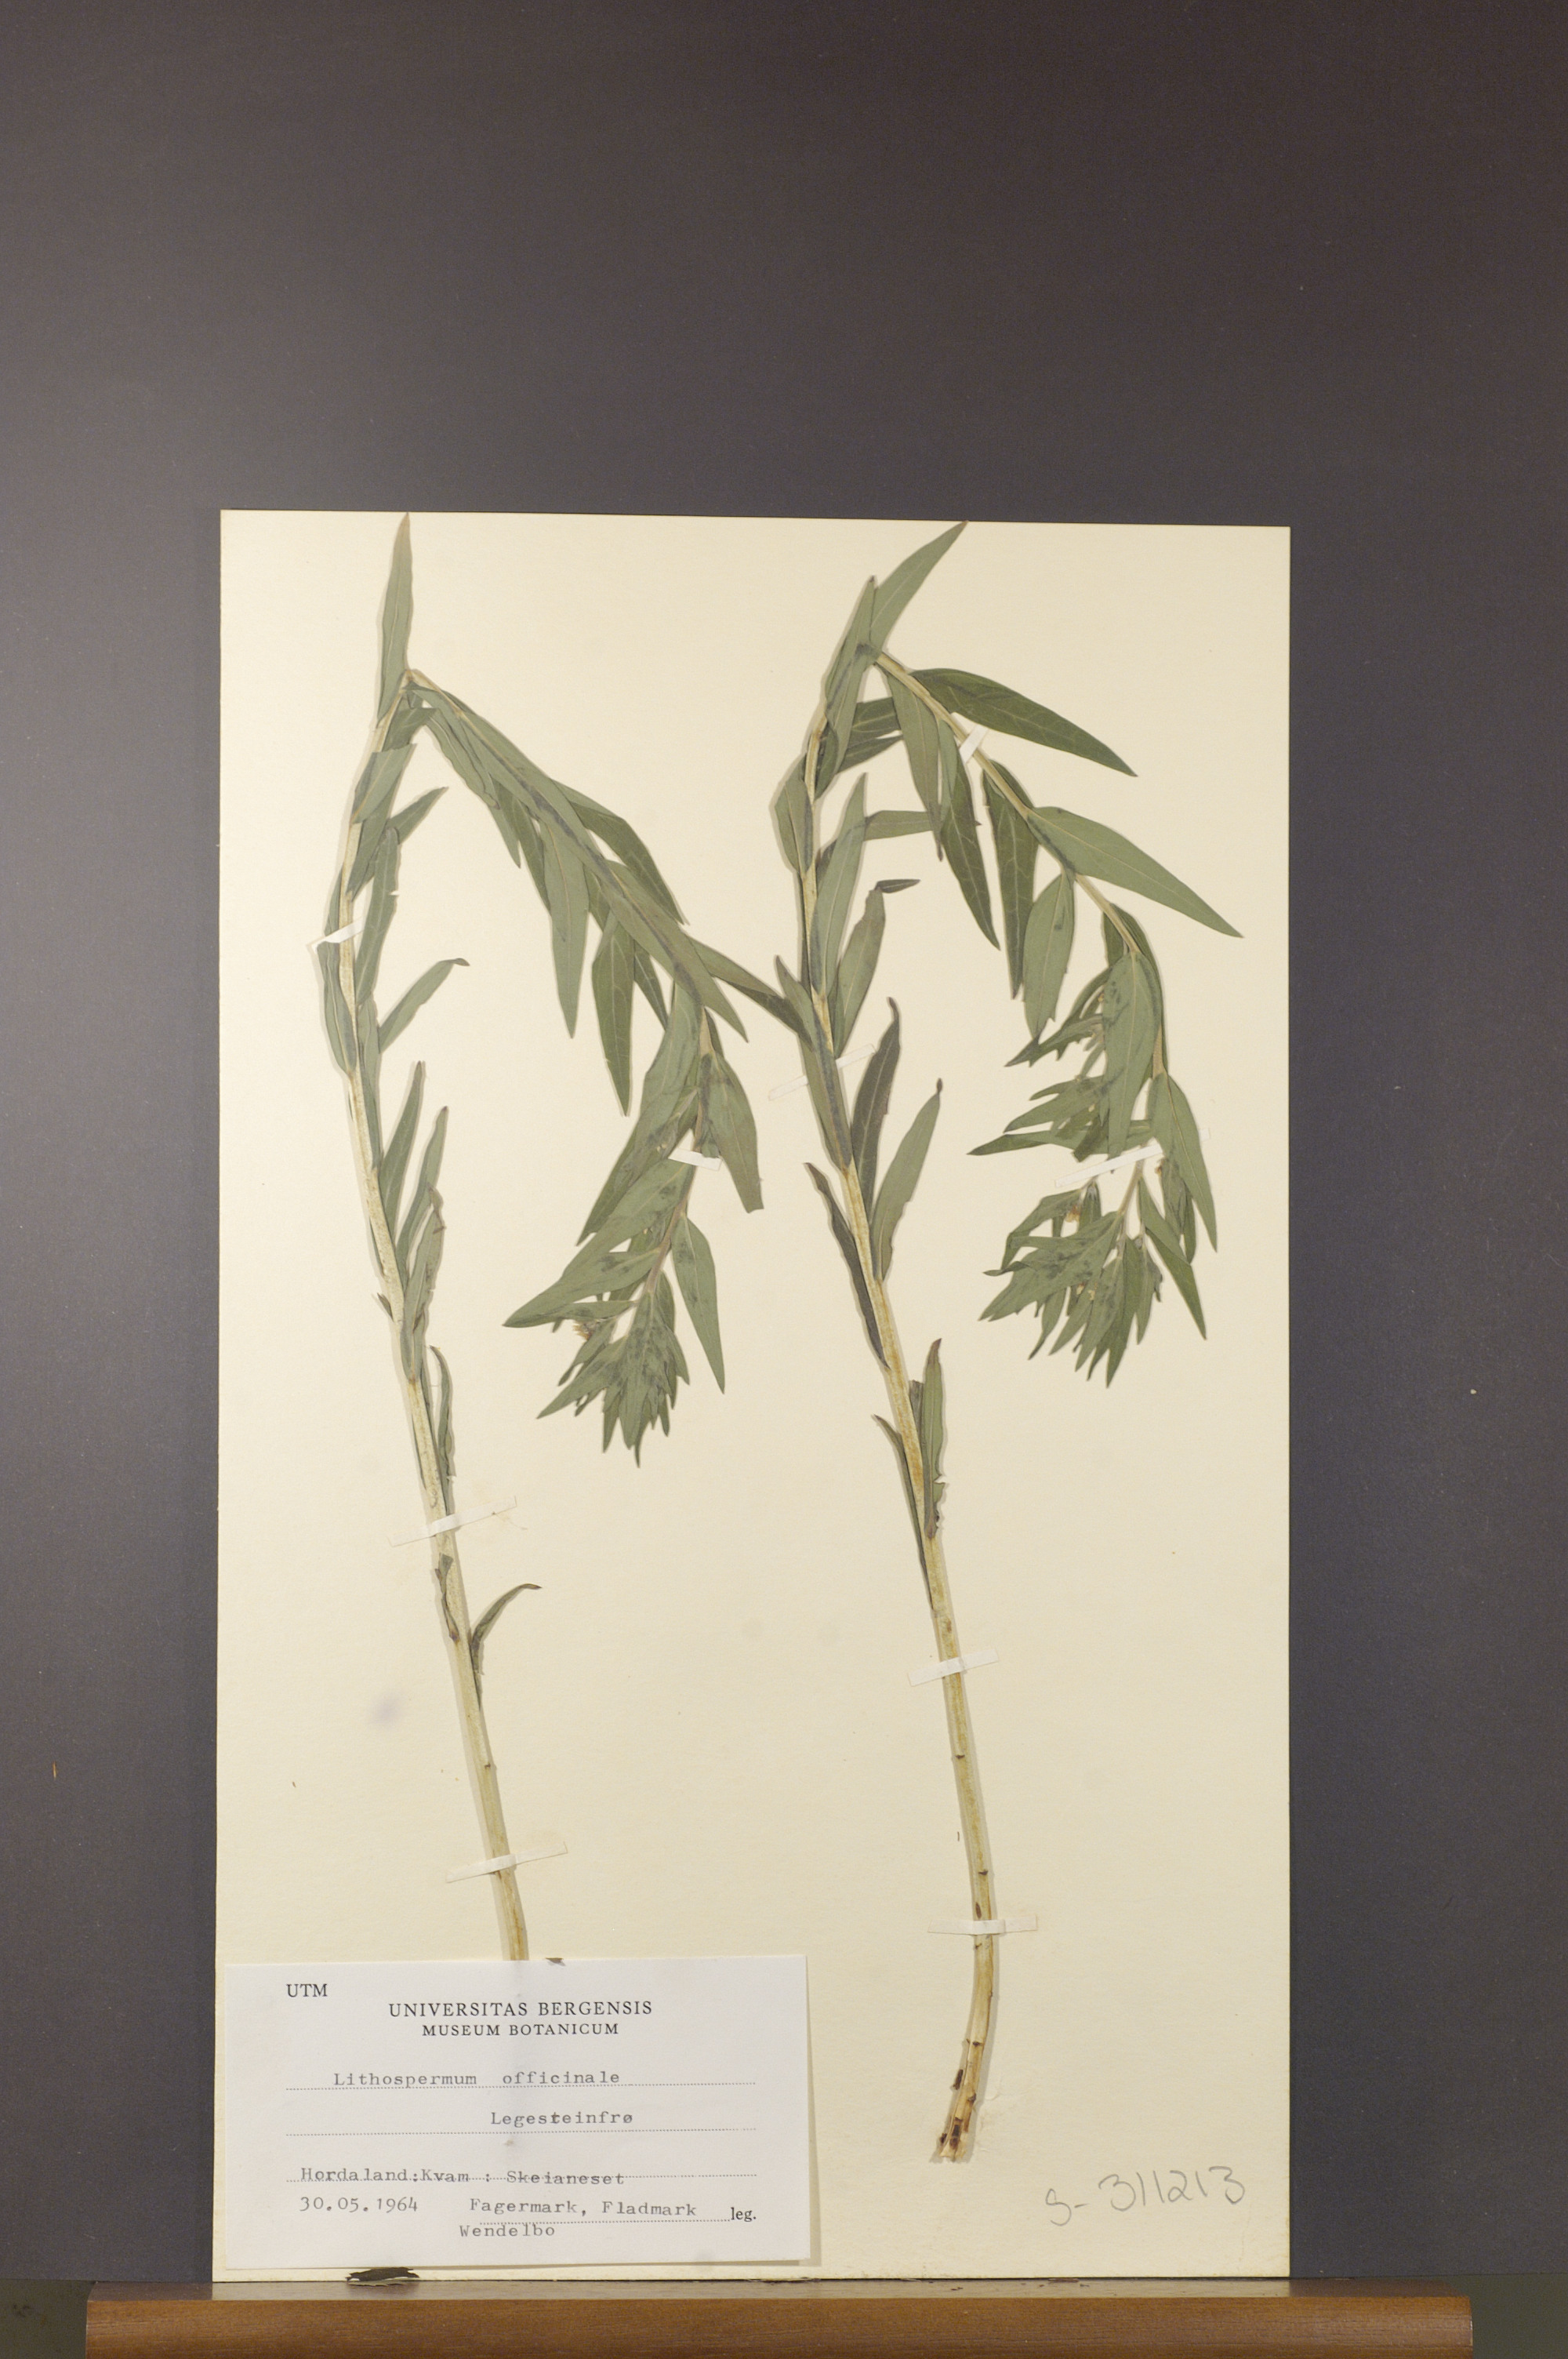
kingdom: Plantae
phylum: Tracheophyta
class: Magnoliopsida
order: Boraginales
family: Boraginaceae
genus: Lithospermum
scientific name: Lithospermum officinale
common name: Common gromwell
